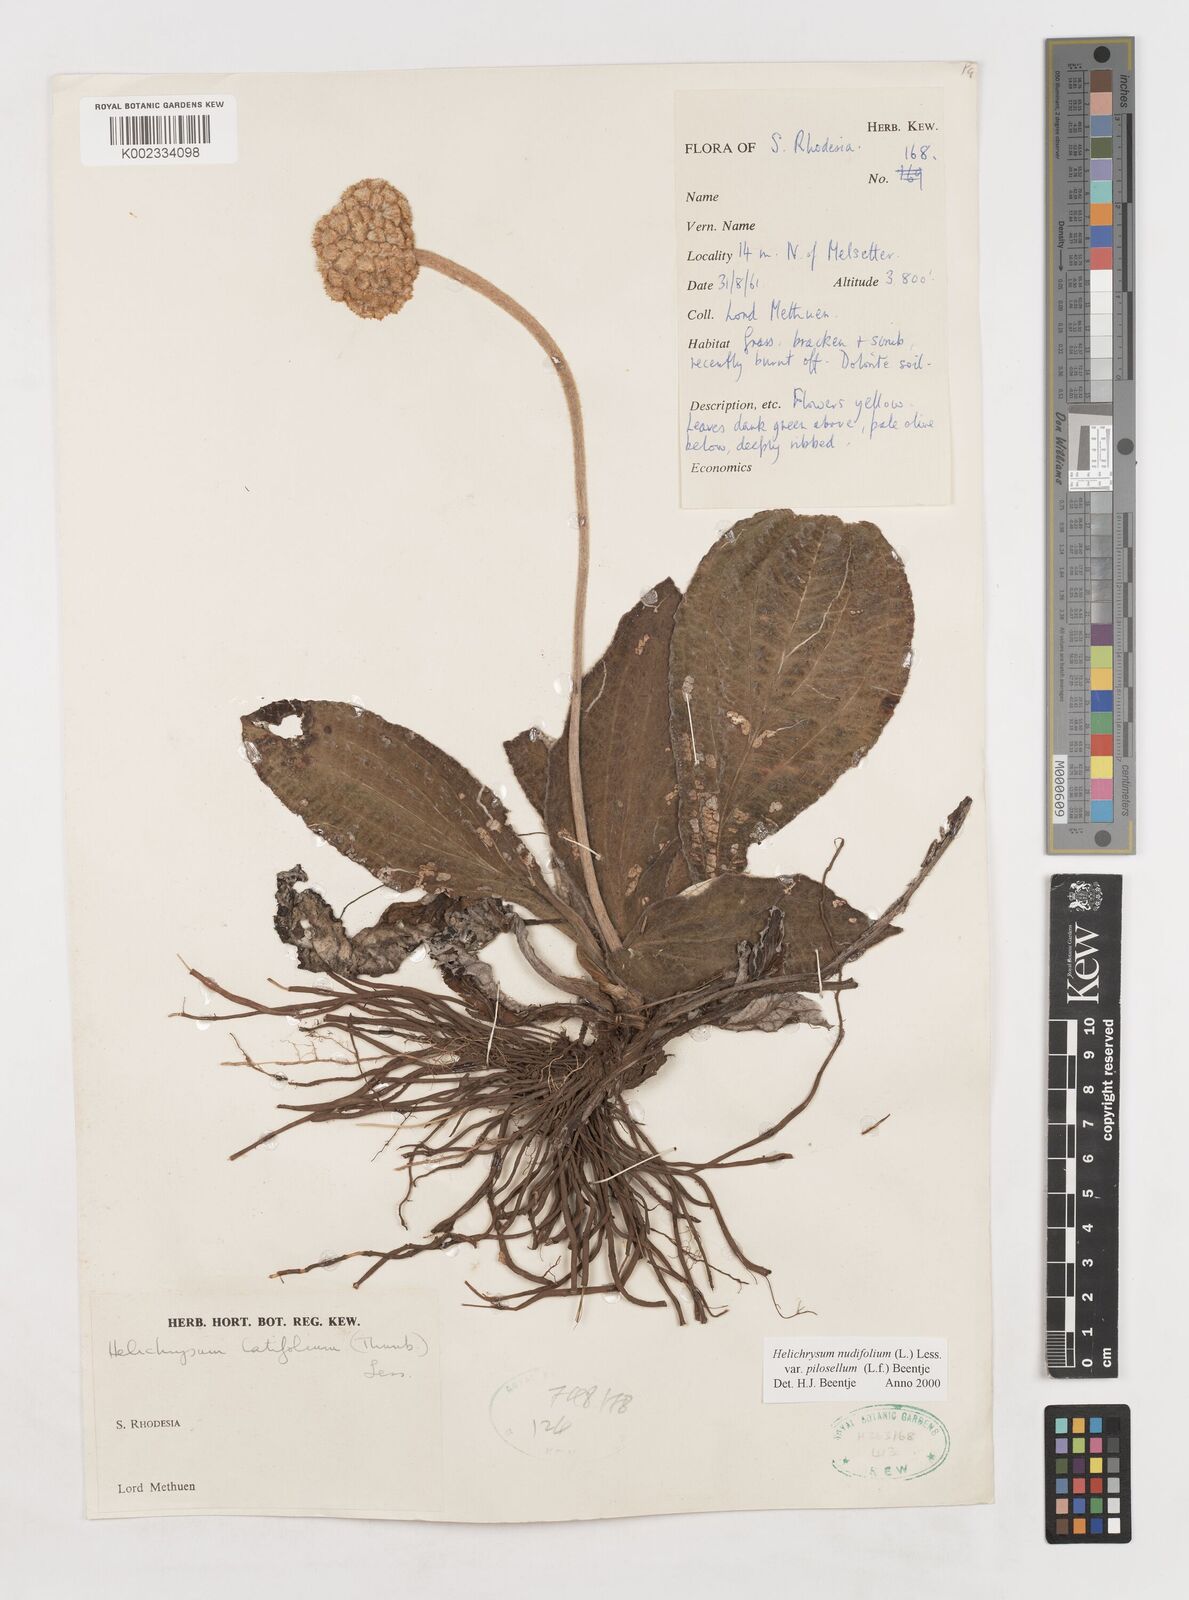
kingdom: Plantae
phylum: Tracheophyta
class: Magnoliopsida
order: Asterales
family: Asteraceae
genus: Helichrysum
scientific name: Helichrysum nudifolium
